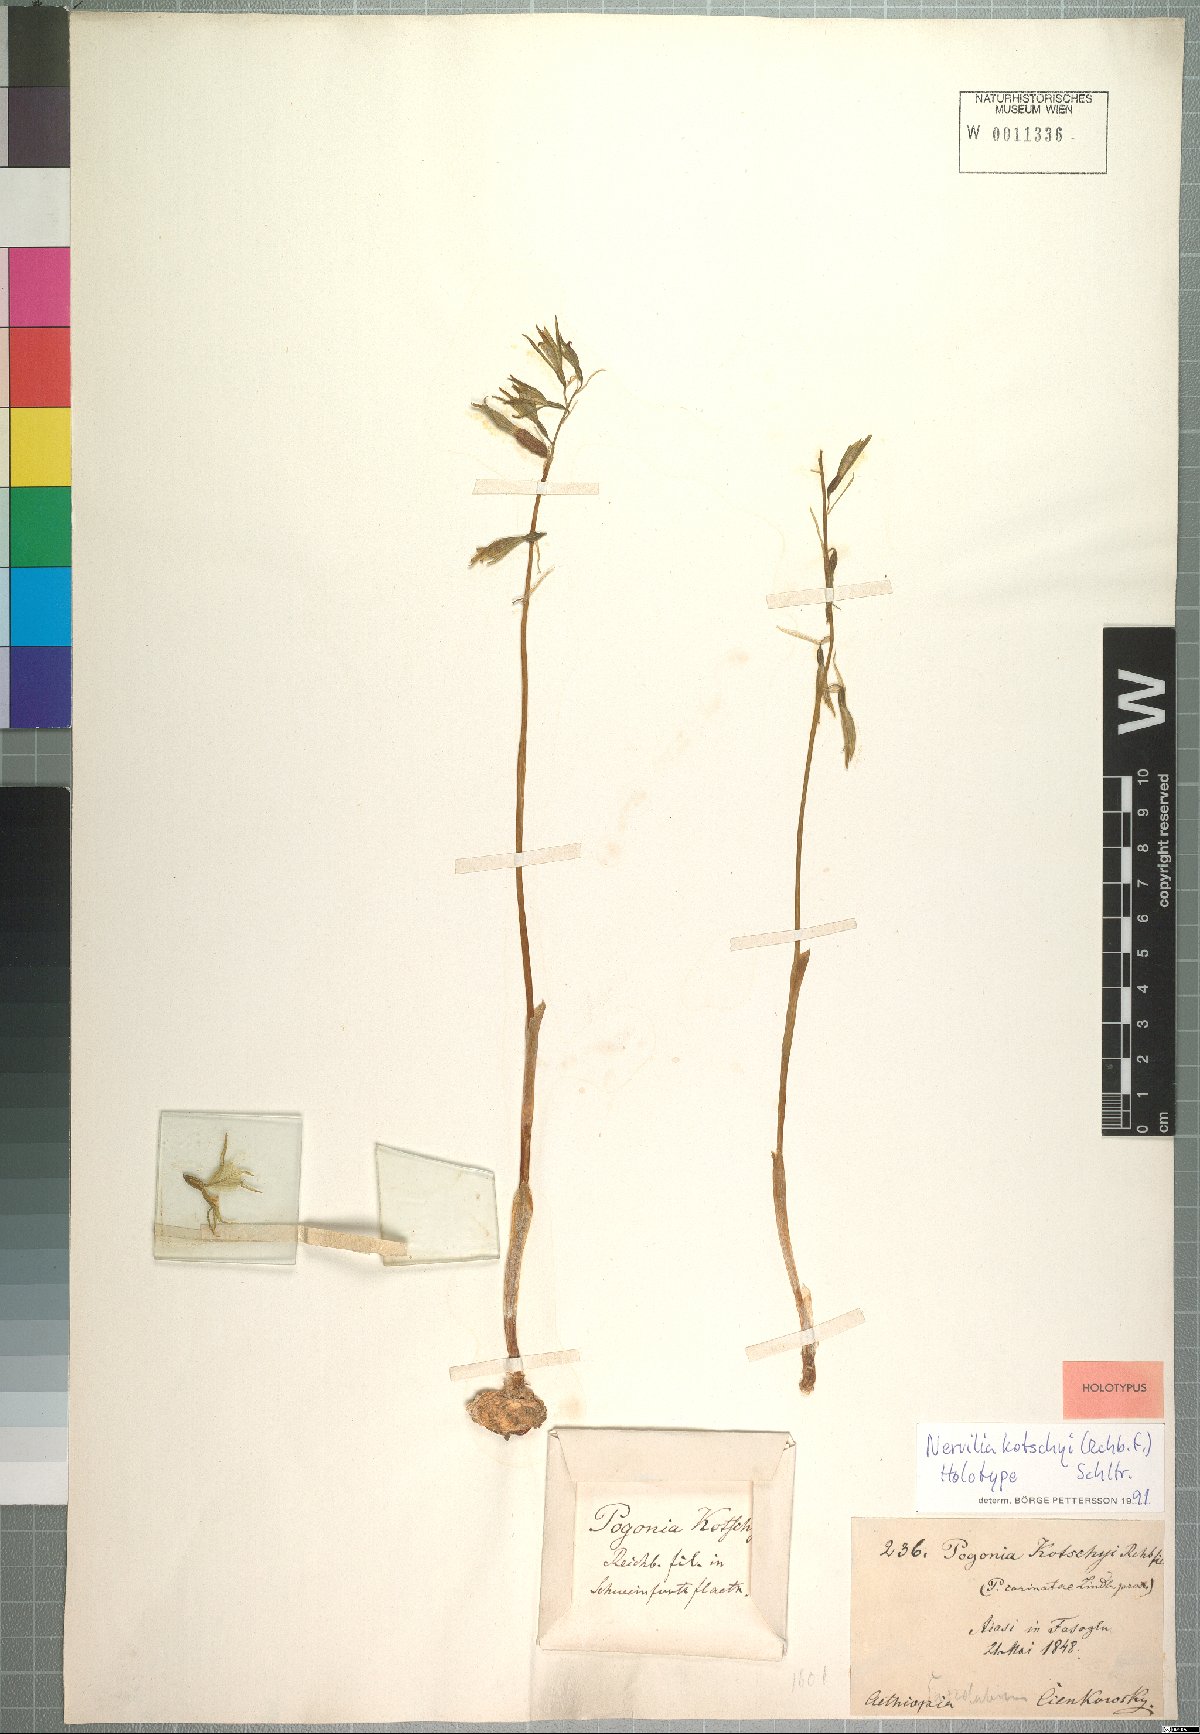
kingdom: Plantae
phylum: Tracheophyta
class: Liliopsida
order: Asparagales
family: Orchidaceae
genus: Nervilia
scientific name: Nervilia kotschyi
